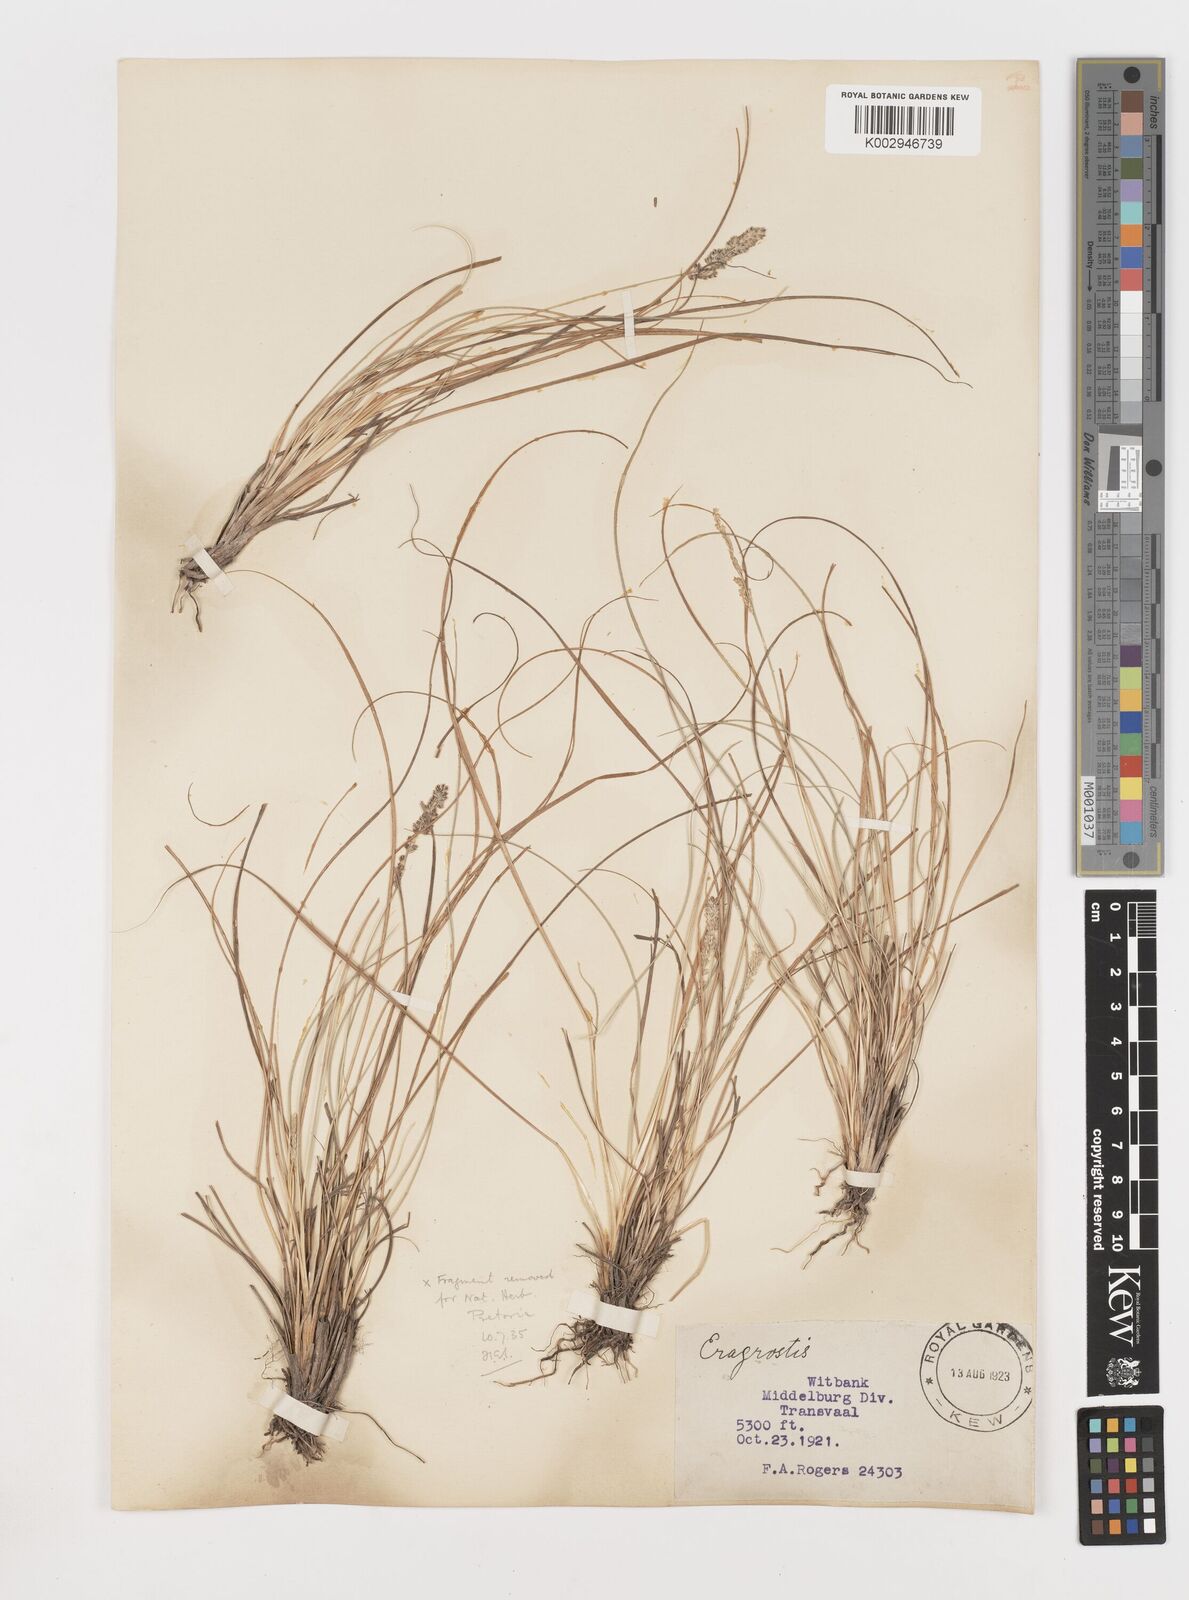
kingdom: Plantae
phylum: Tracheophyta
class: Liliopsida
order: Poales
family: Poaceae
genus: Stiburus
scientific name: Stiburus conrathii
